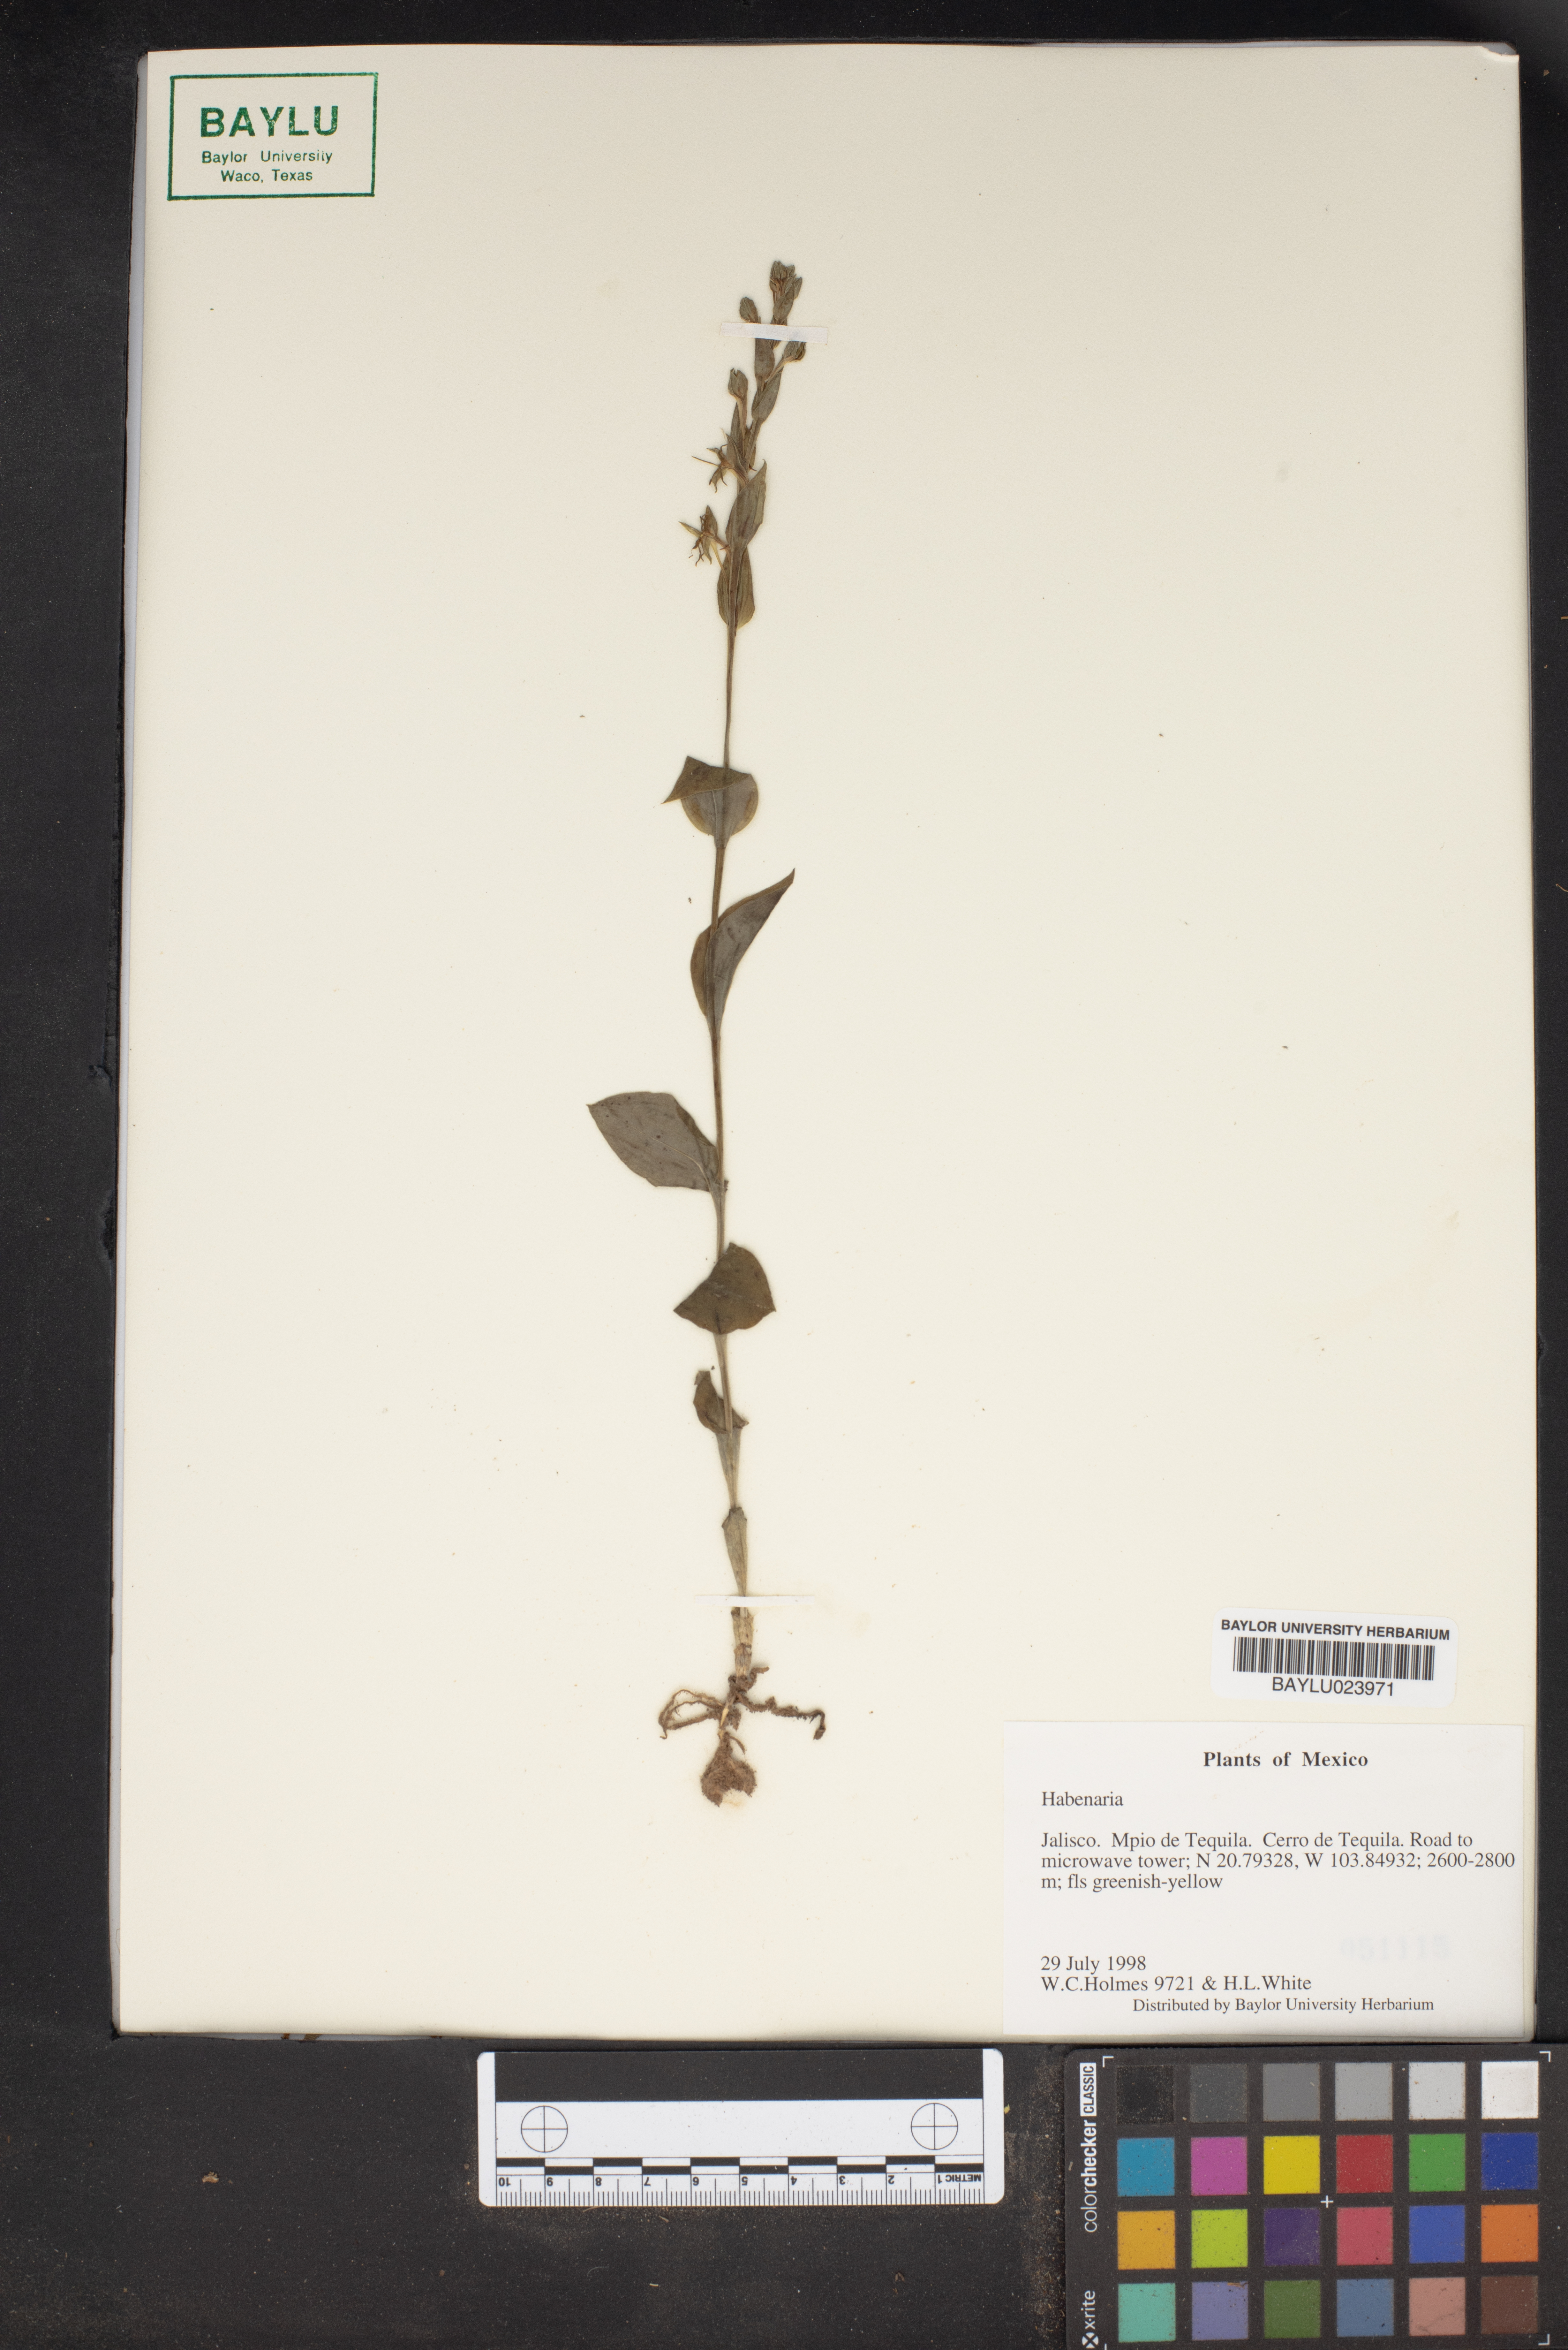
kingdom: Plantae
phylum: Tracheophyta
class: Liliopsida
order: Asparagales
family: Orchidaceae
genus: Habenaria
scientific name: Habenaria
